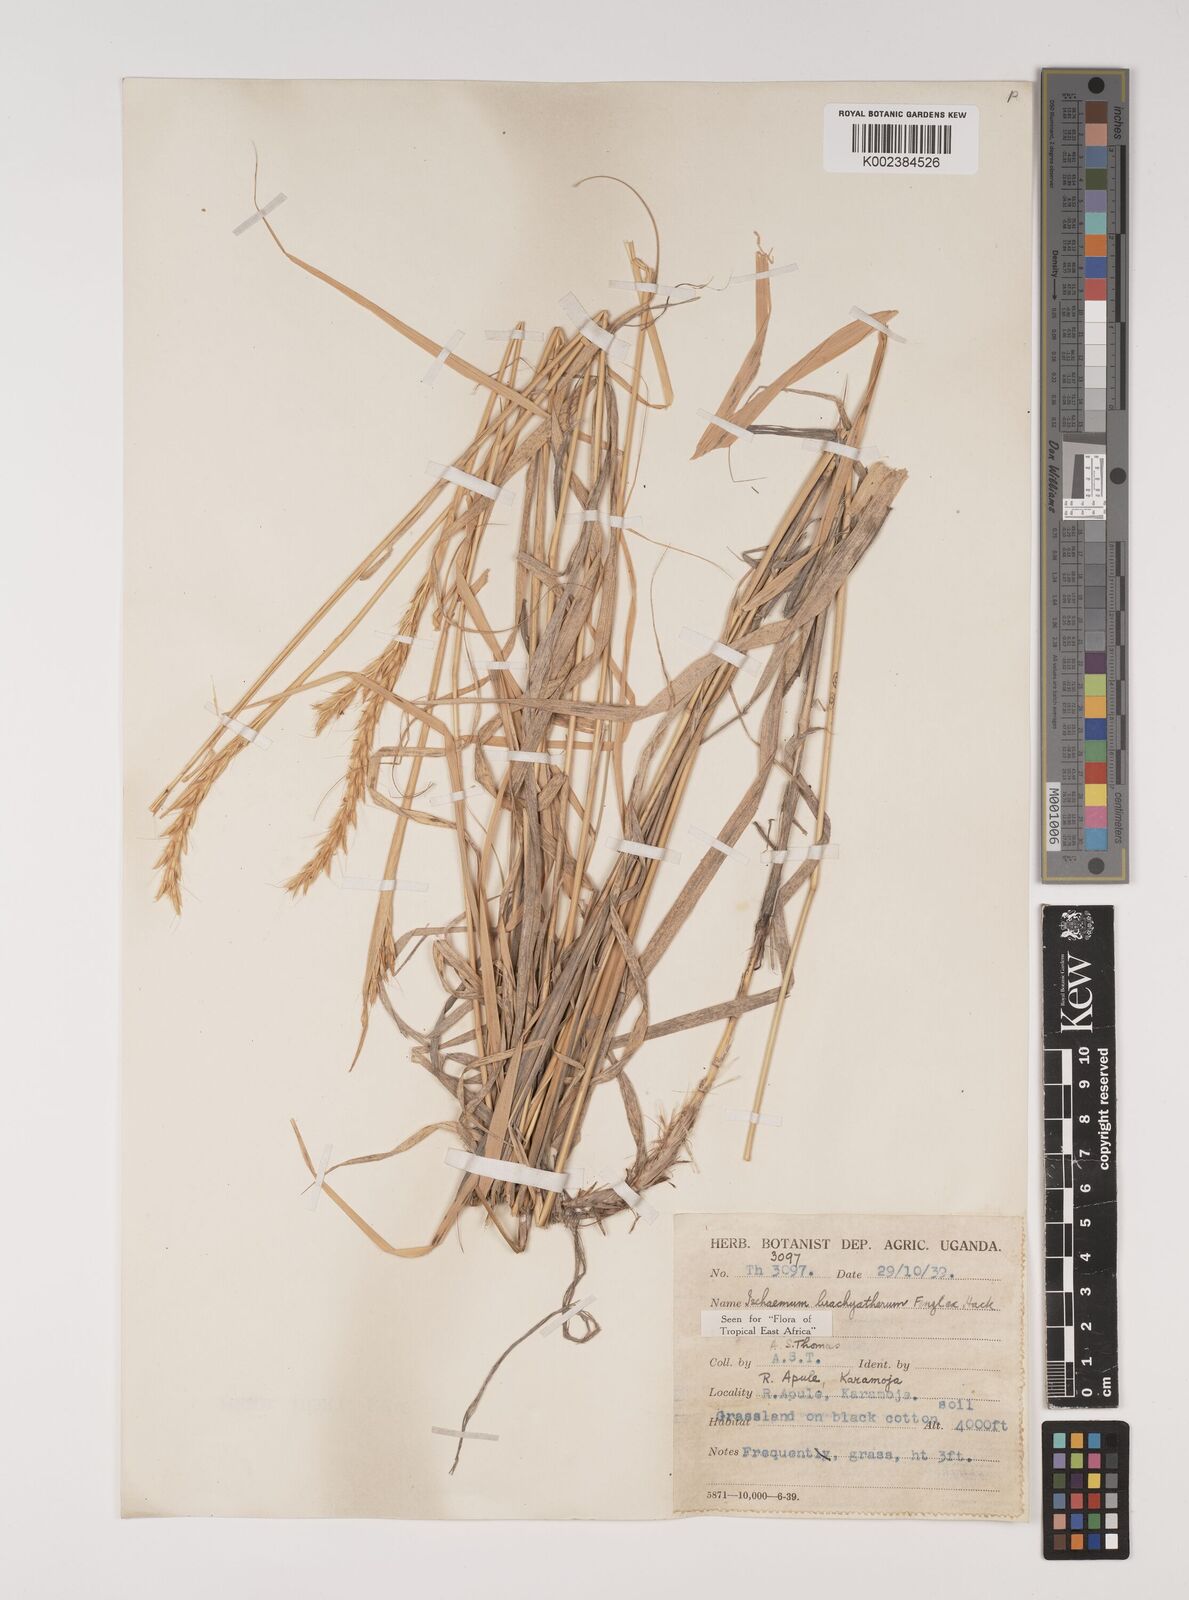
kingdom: Plantae
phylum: Tracheophyta
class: Liliopsida
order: Poales
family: Poaceae
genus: Ischaemum
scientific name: Ischaemum afrum
